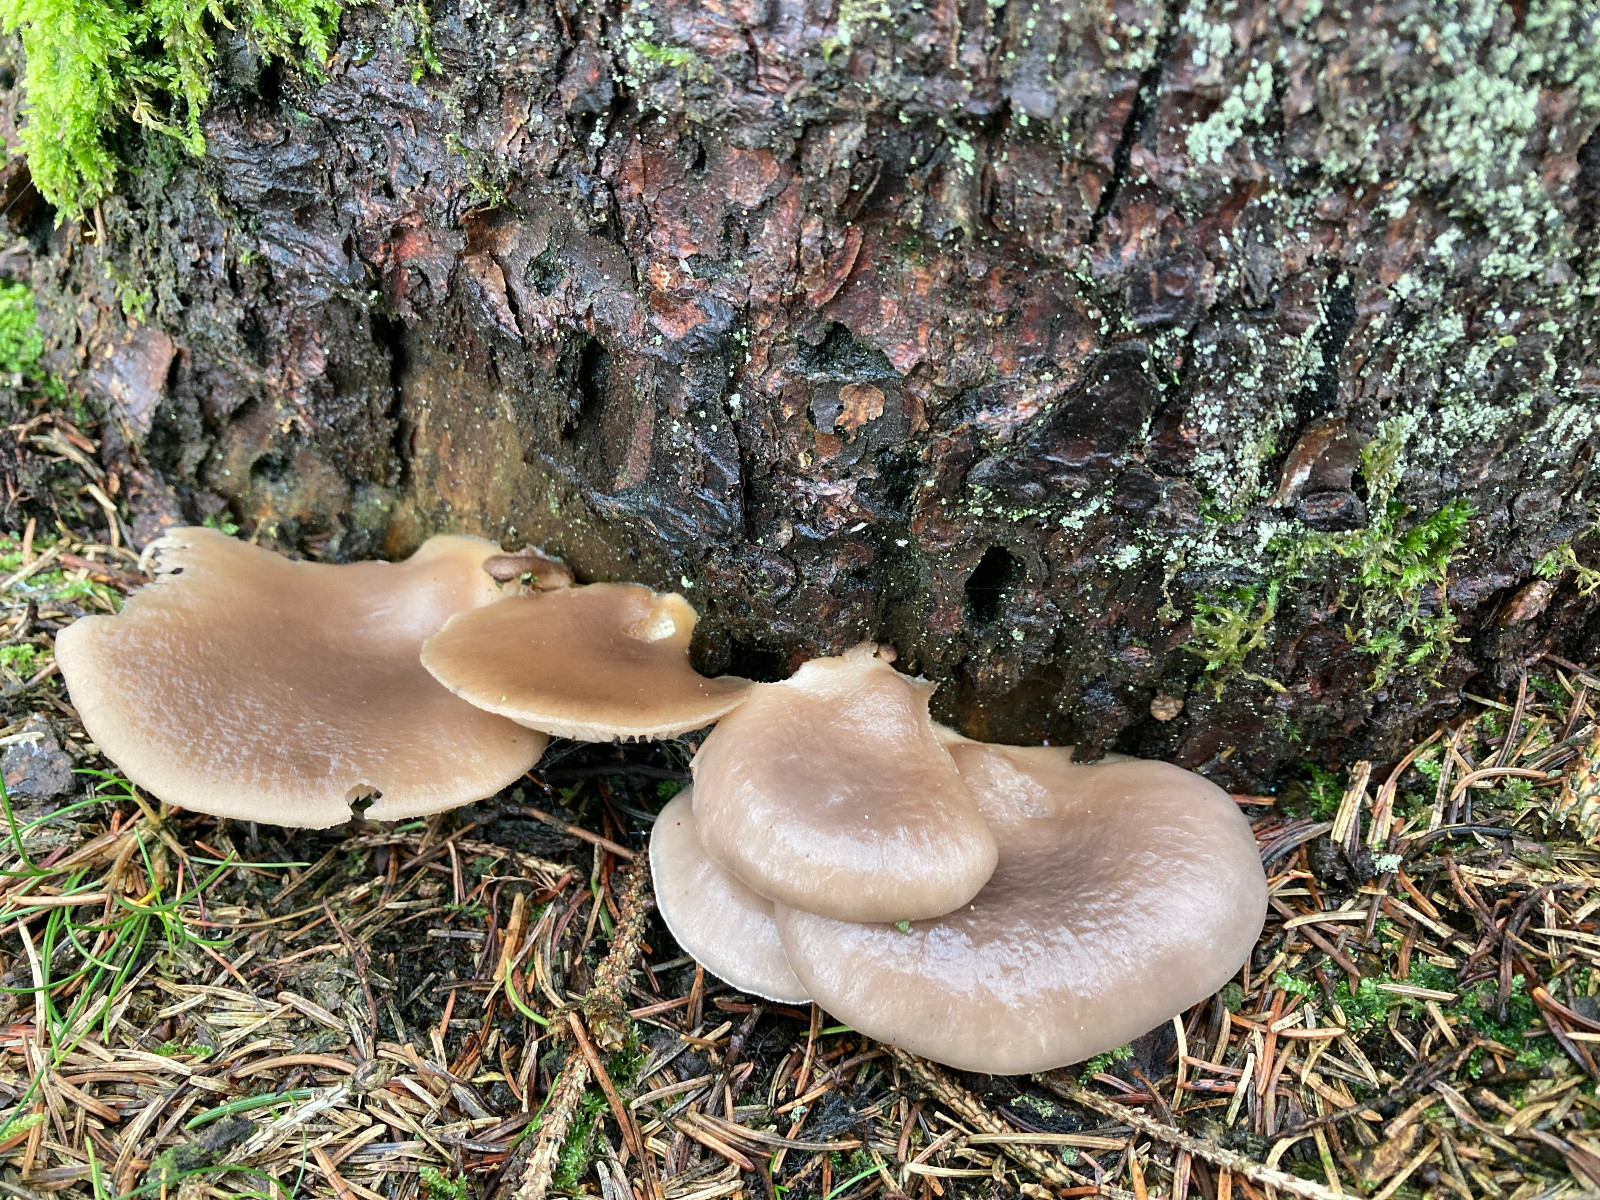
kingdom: Fungi
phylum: Basidiomycota
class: Agaricomycetes
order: Agaricales
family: Pleurotaceae
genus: Pleurotus
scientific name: Pleurotus ostreatus
